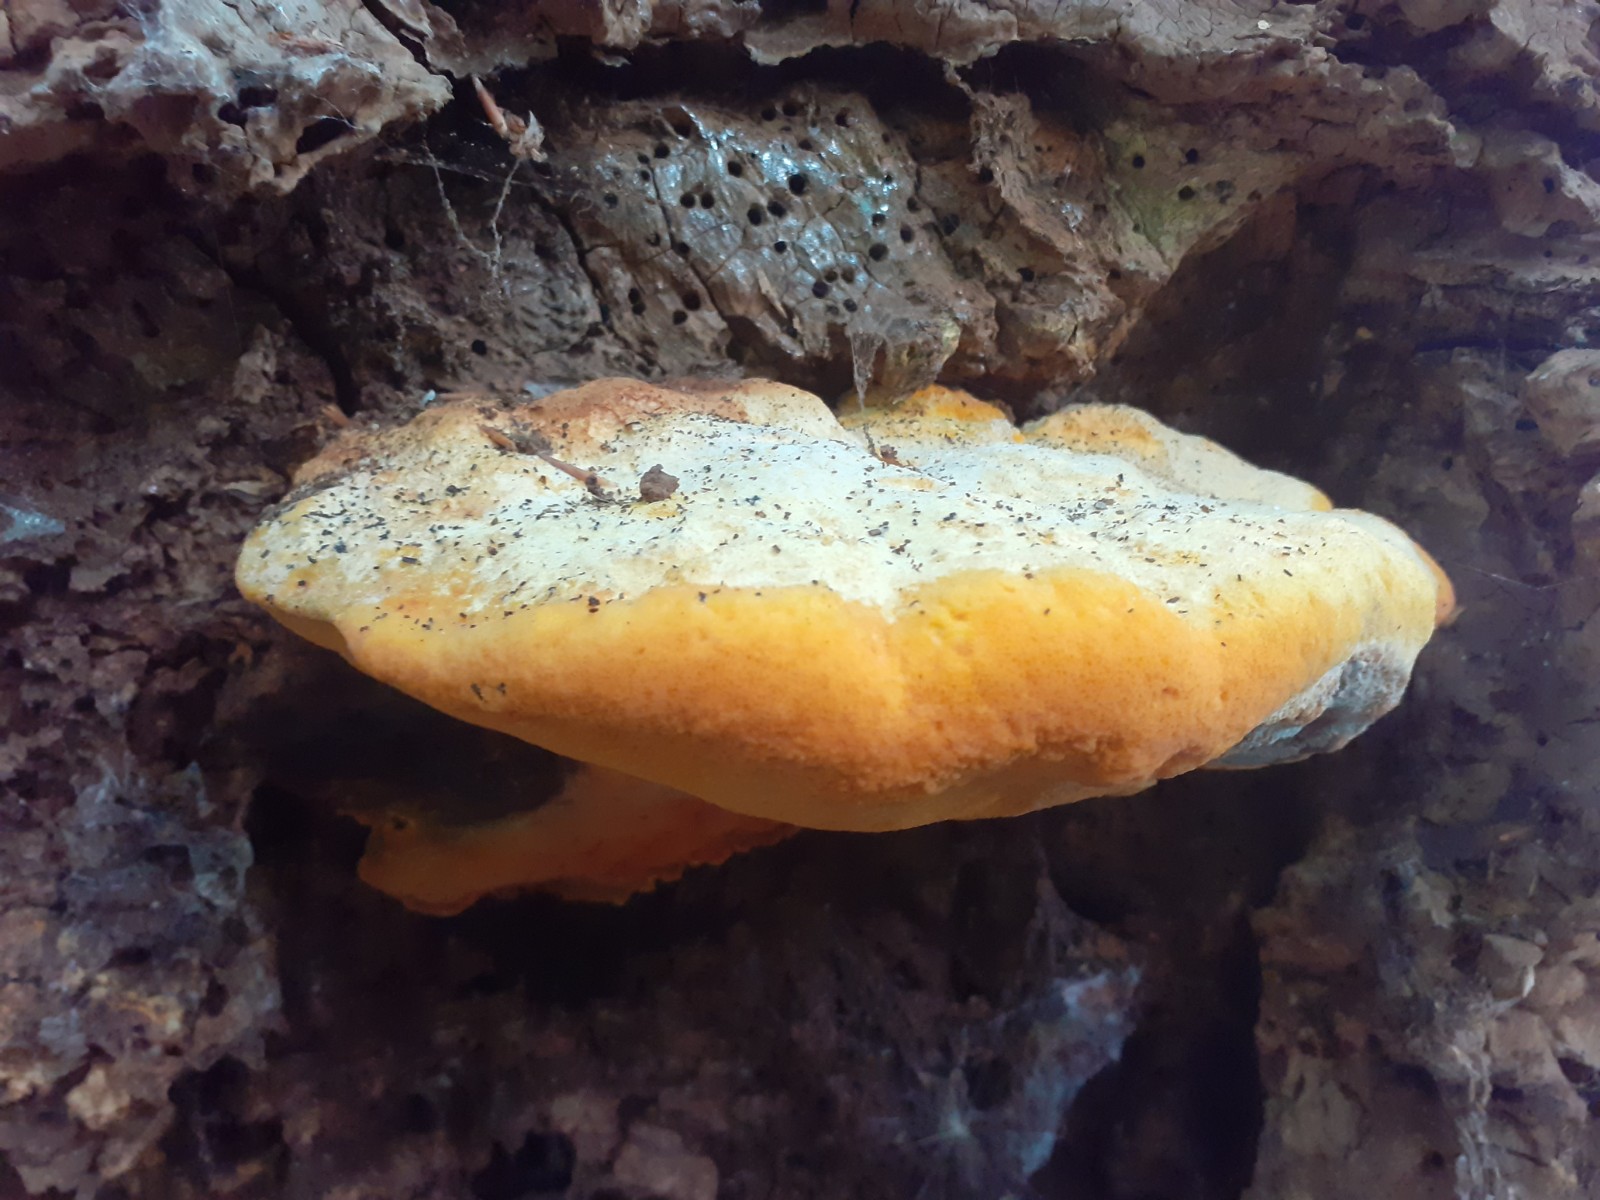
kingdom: Fungi
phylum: Basidiomycota
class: Agaricomycetes
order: Polyporales
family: Phanerochaetaceae
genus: Hapalopilus
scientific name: Hapalopilus croceus
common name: safrangul pragtporesvamp
